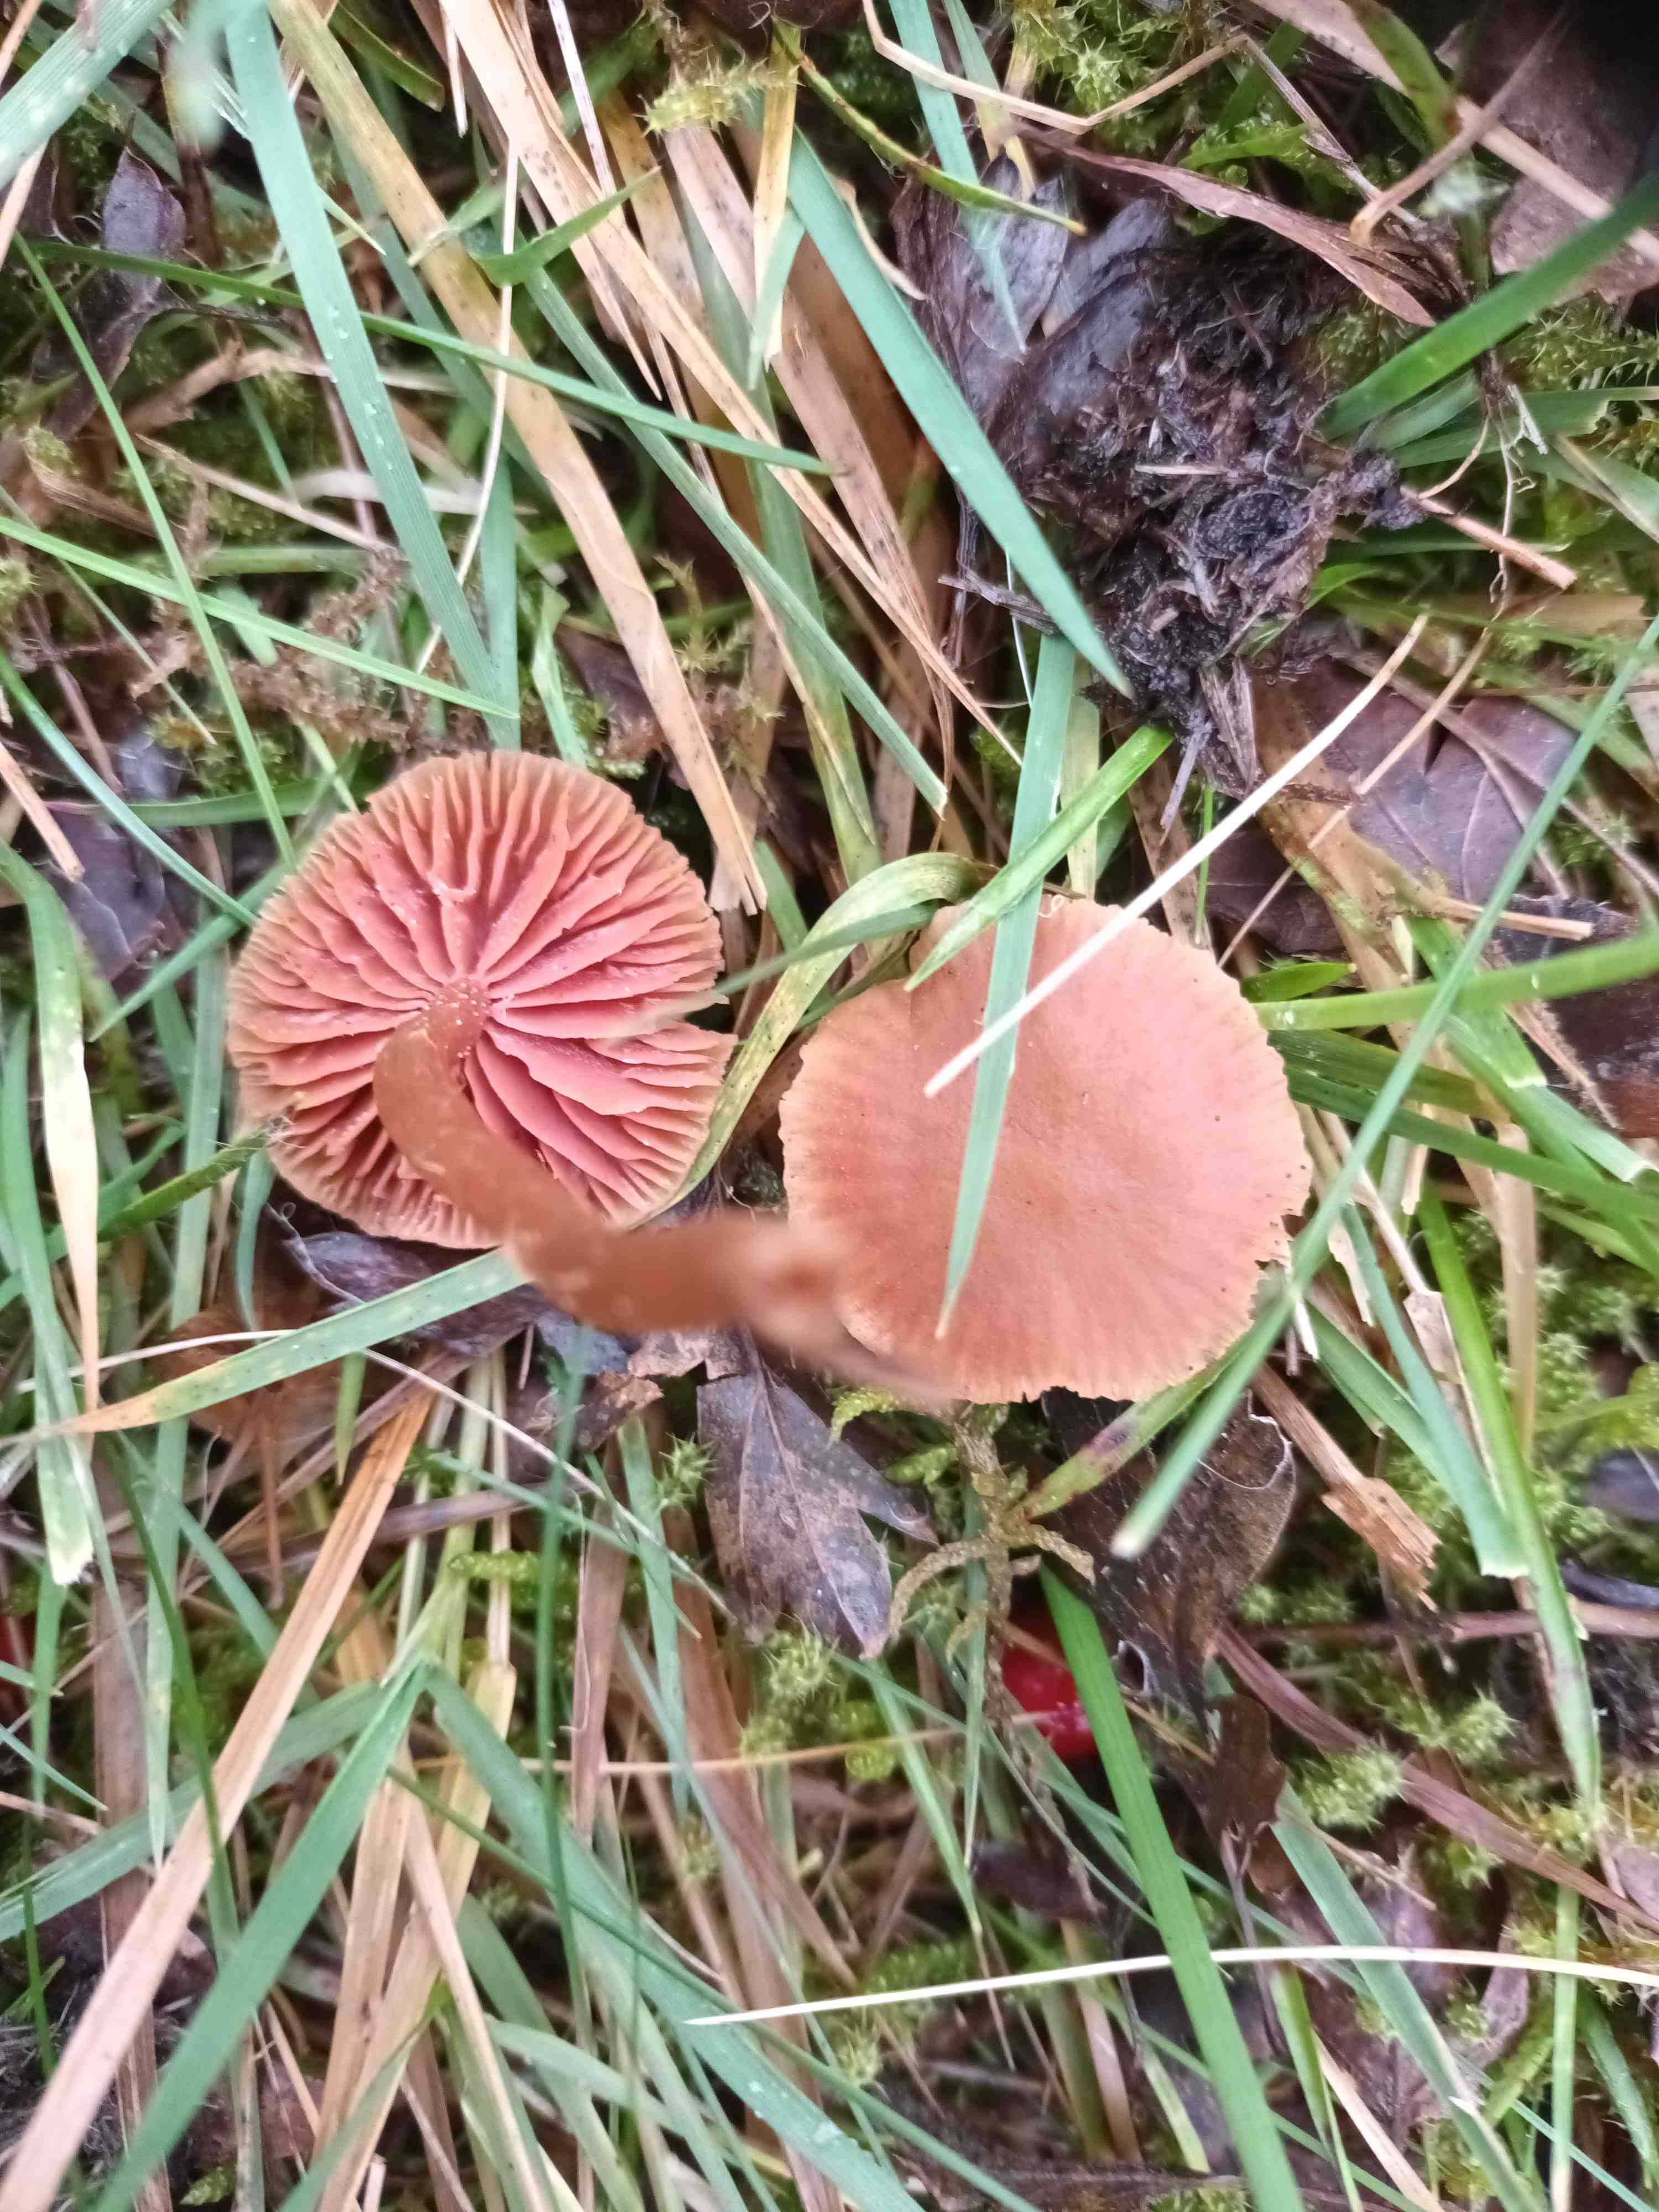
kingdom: Fungi
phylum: Basidiomycota
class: Agaricomycetes
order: Agaricales
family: Hydnangiaceae
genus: Laccaria
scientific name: Laccaria laccata
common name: rød ametysthat
